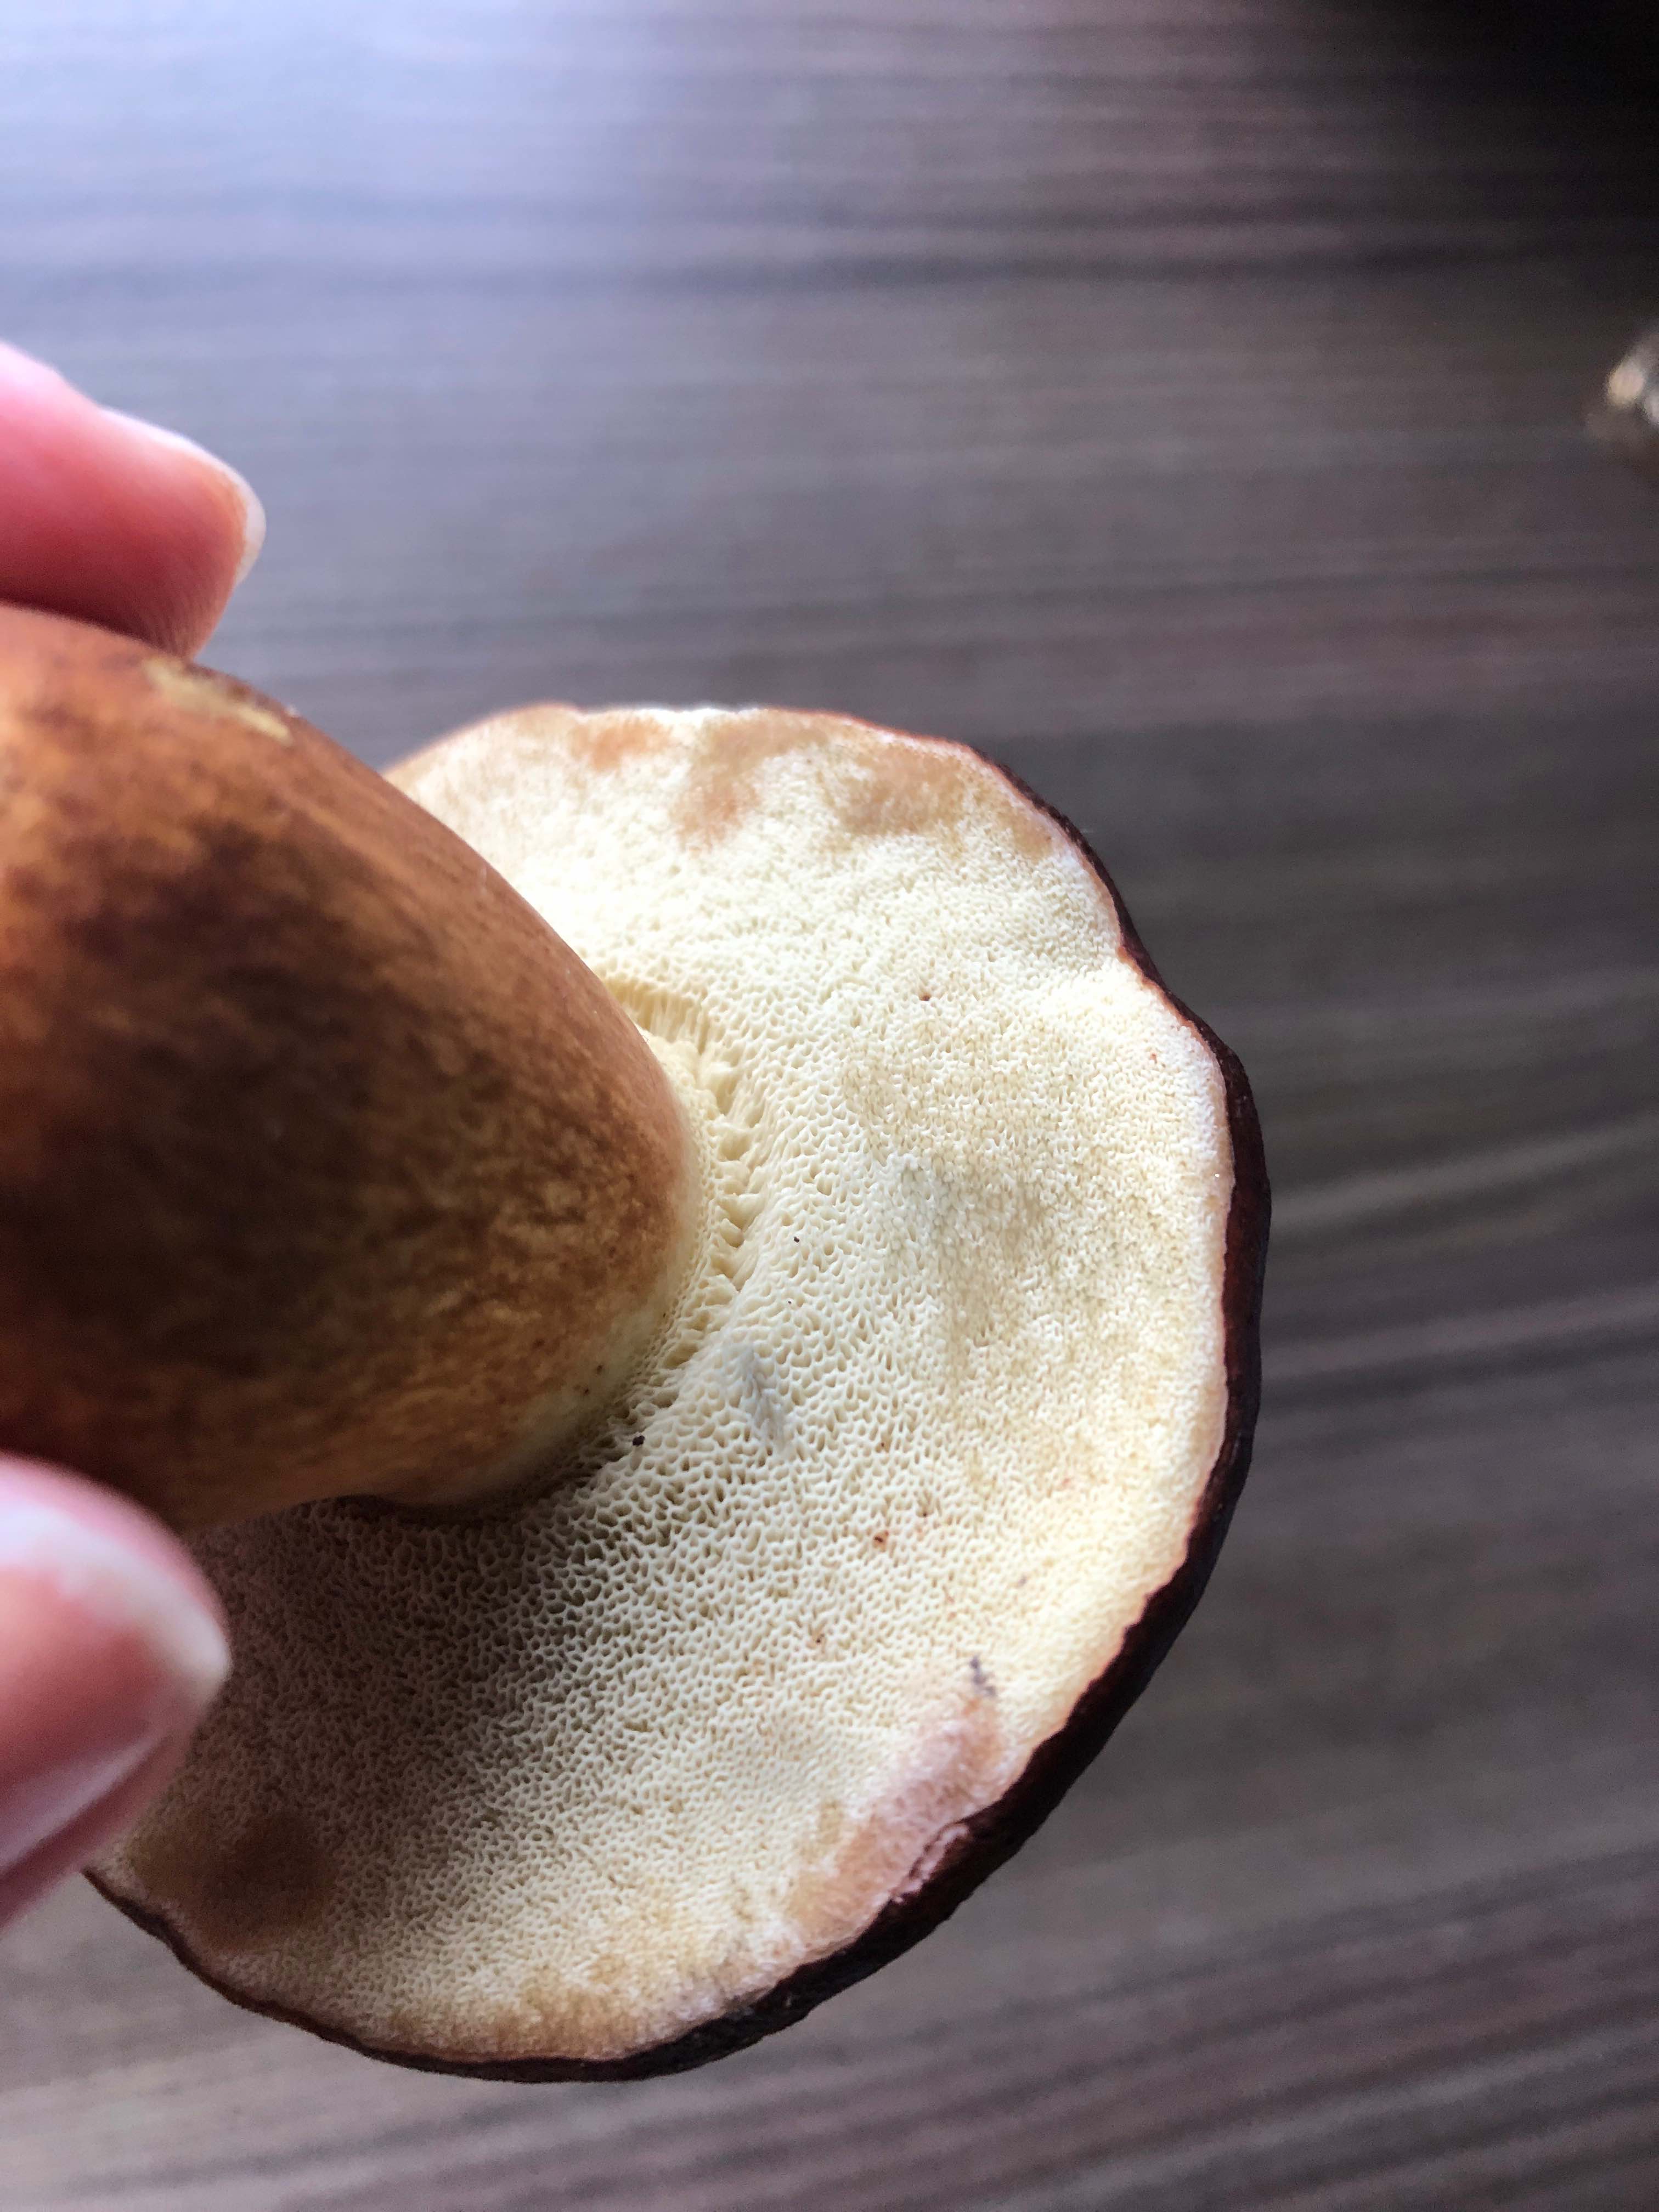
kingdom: Fungi
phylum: Basidiomycota
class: Agaricomycetes
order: Boletales
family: Boletaceae
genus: Imleria
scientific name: Imleria badia
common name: brunstokket rørhat
